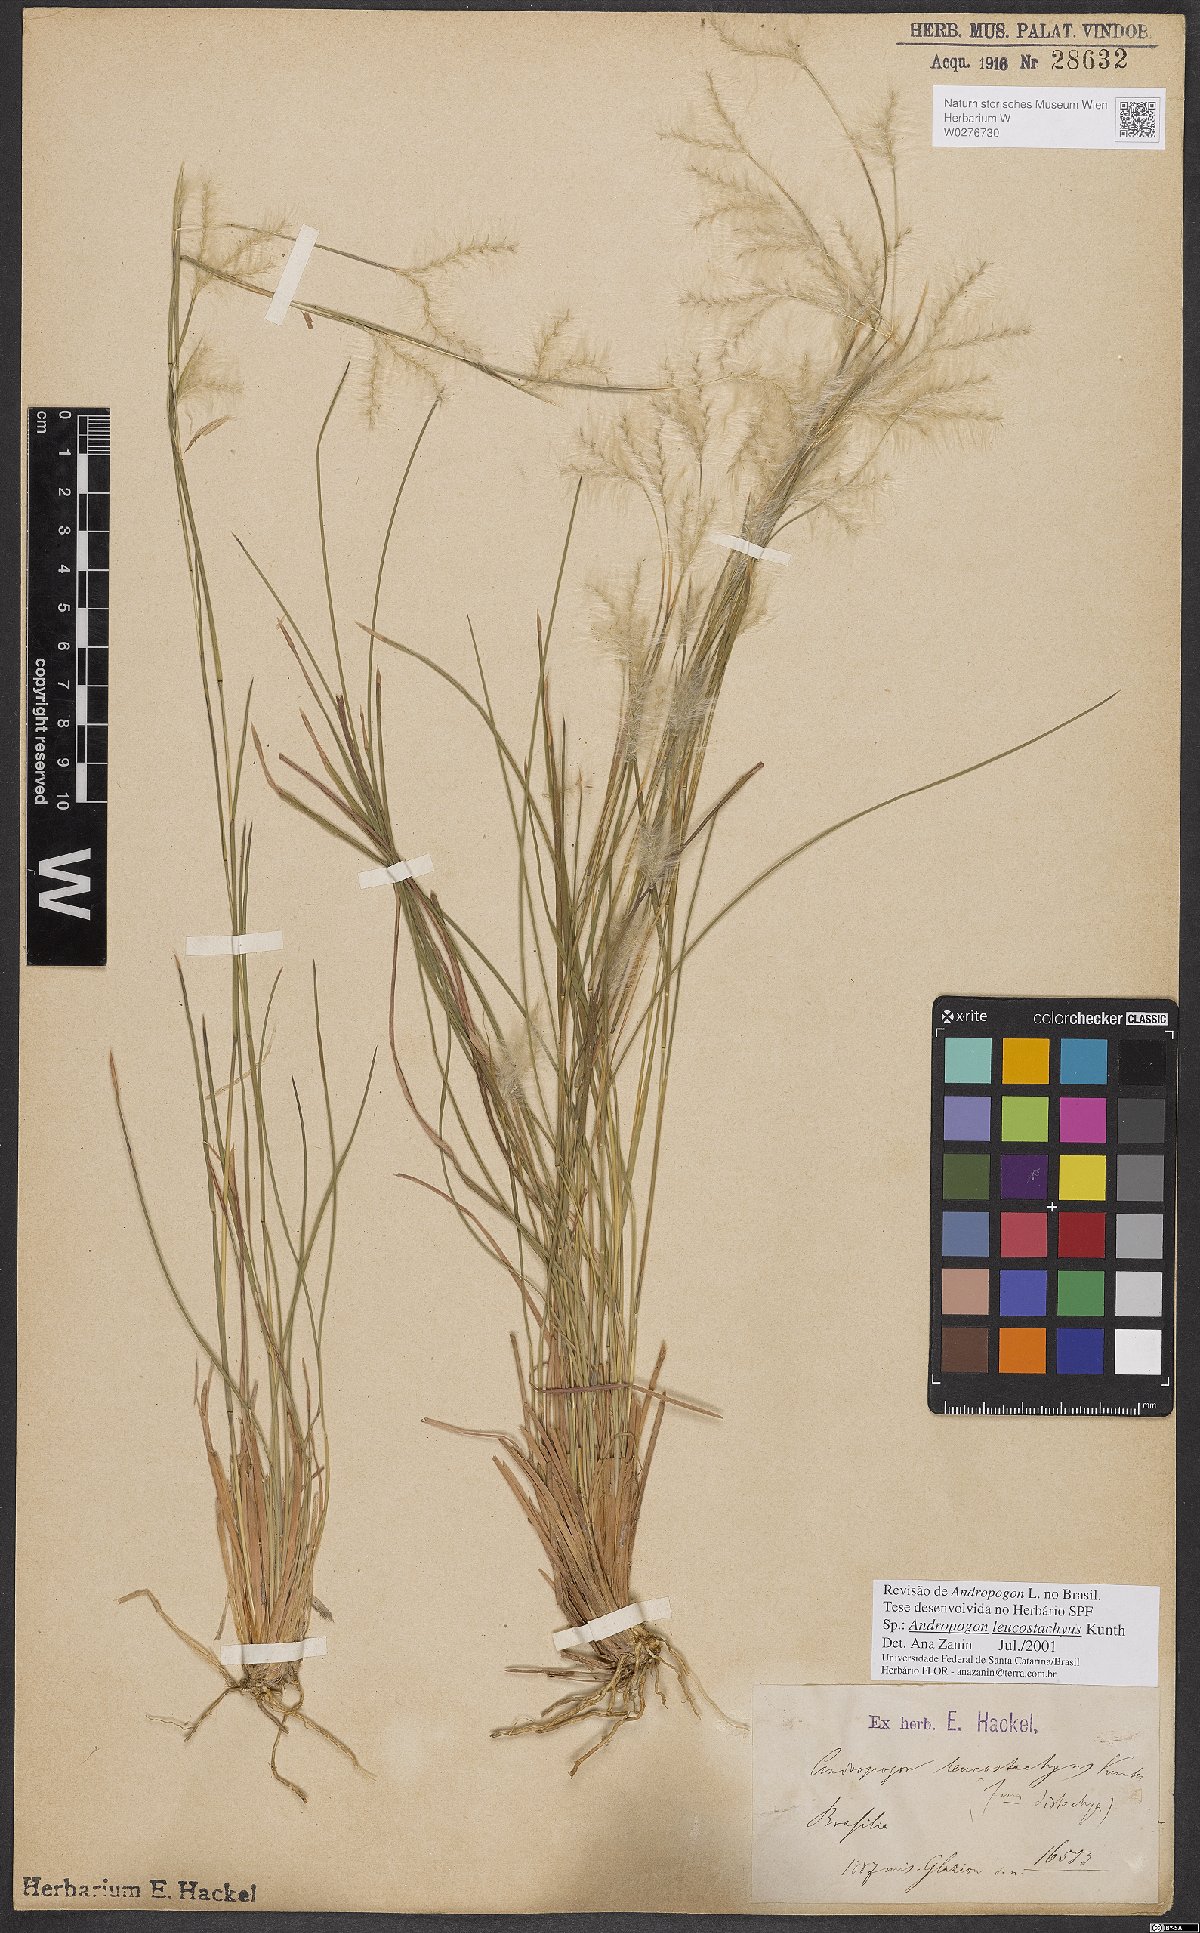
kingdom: Plantae
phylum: Tracheophyta
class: Liliopsida
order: Poales
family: Poaceae
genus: Andropogon
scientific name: Andropogon leucostachyus
